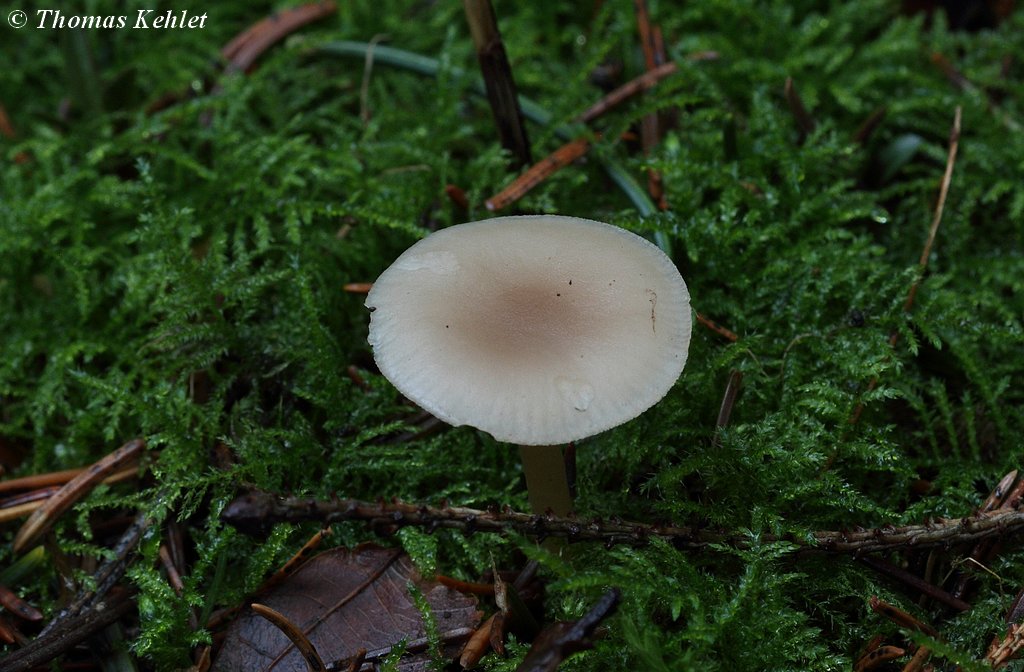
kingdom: Fungi
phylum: Basidiomycota
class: Agaricomycetes
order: Agaricales
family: Tricholomataceae
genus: Clitocybe
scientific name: Clitocybe fragrans
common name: vellugtende tragthat
